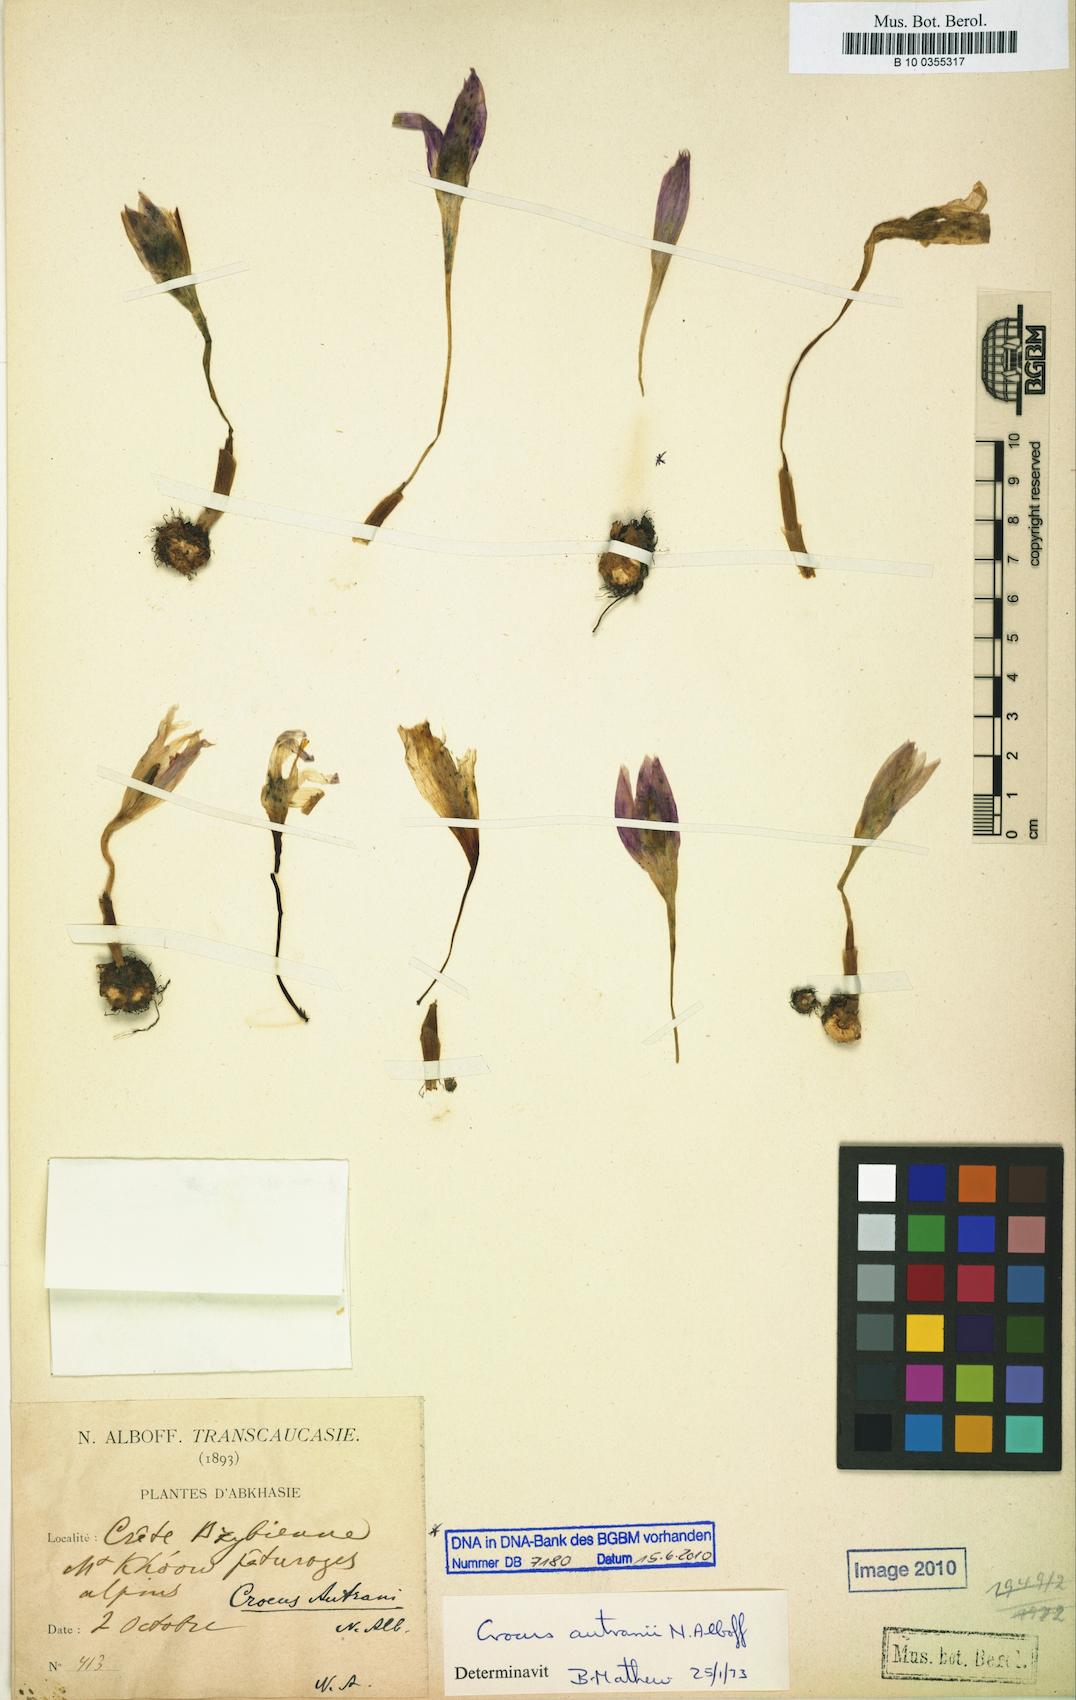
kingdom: Plantae
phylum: Tracheophyta
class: Liliopsida
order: Asparagales
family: Iridaceae
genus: Crocus
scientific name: Crocus autranii
